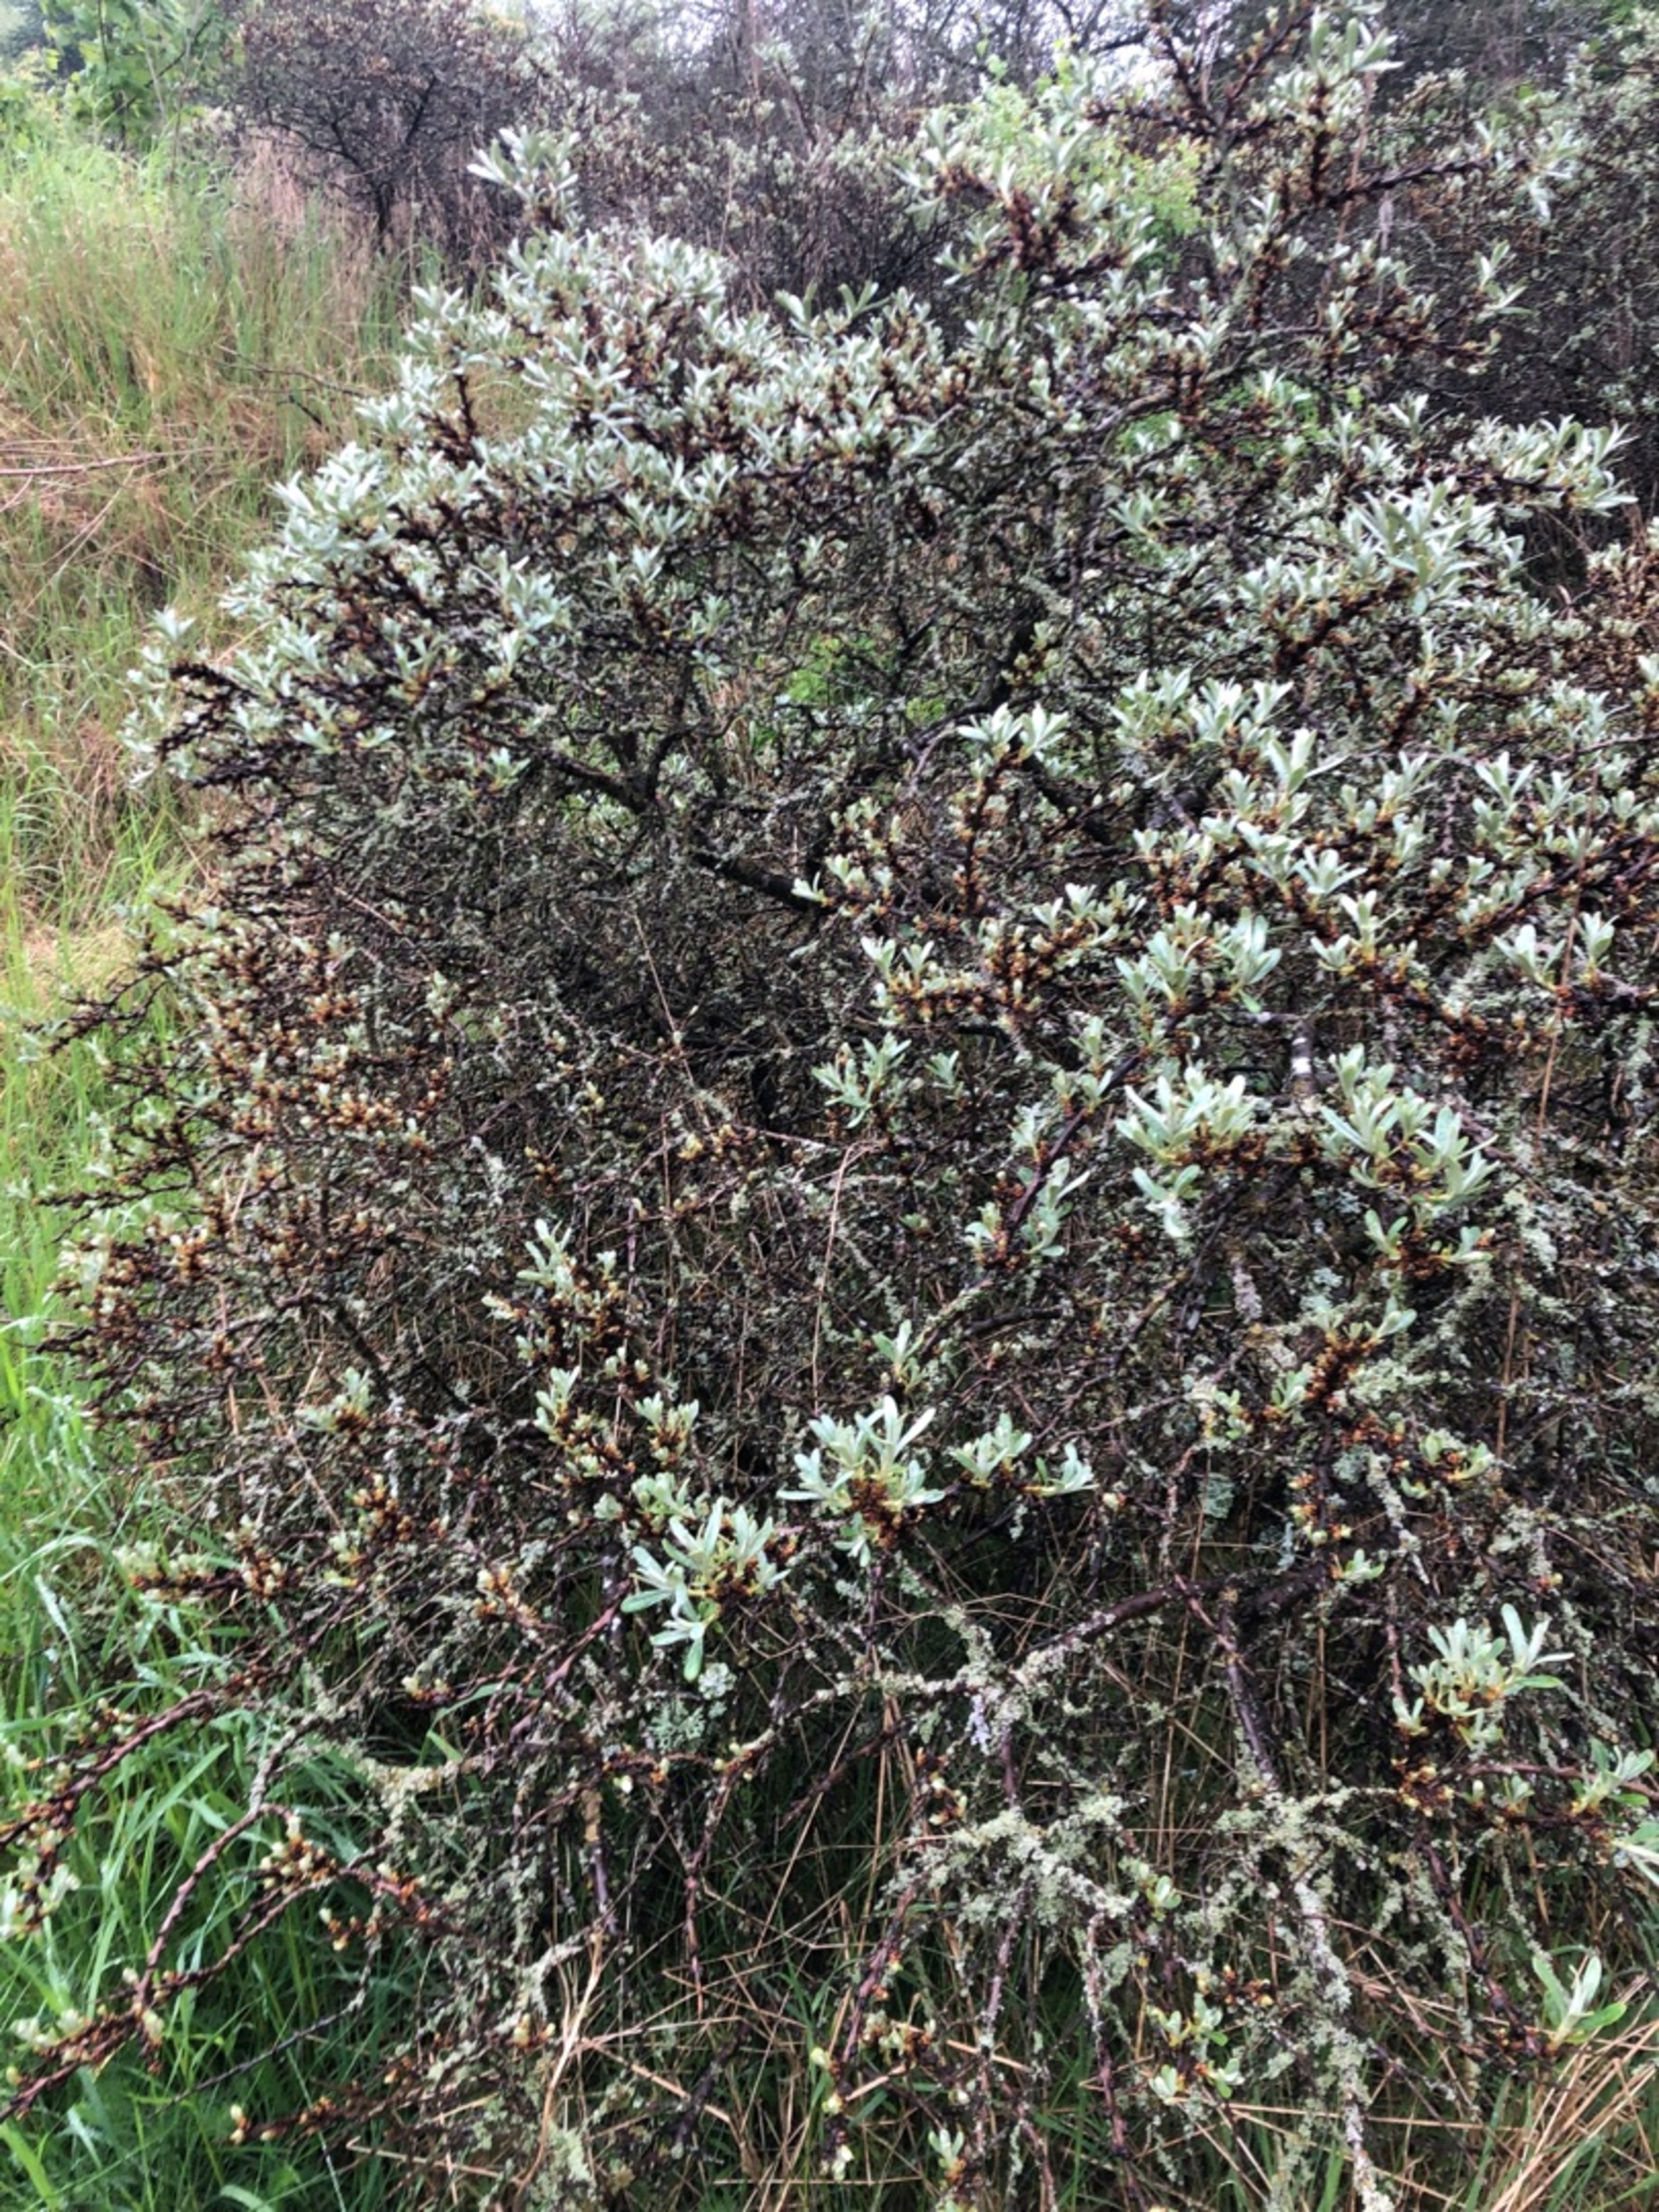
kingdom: Plantae
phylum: Tracheophyta
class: Magnoliopsida
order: Rosales
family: Elaeagnaceae
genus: Hippophae
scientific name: Hippophae rhamnoides
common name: Havtorn
